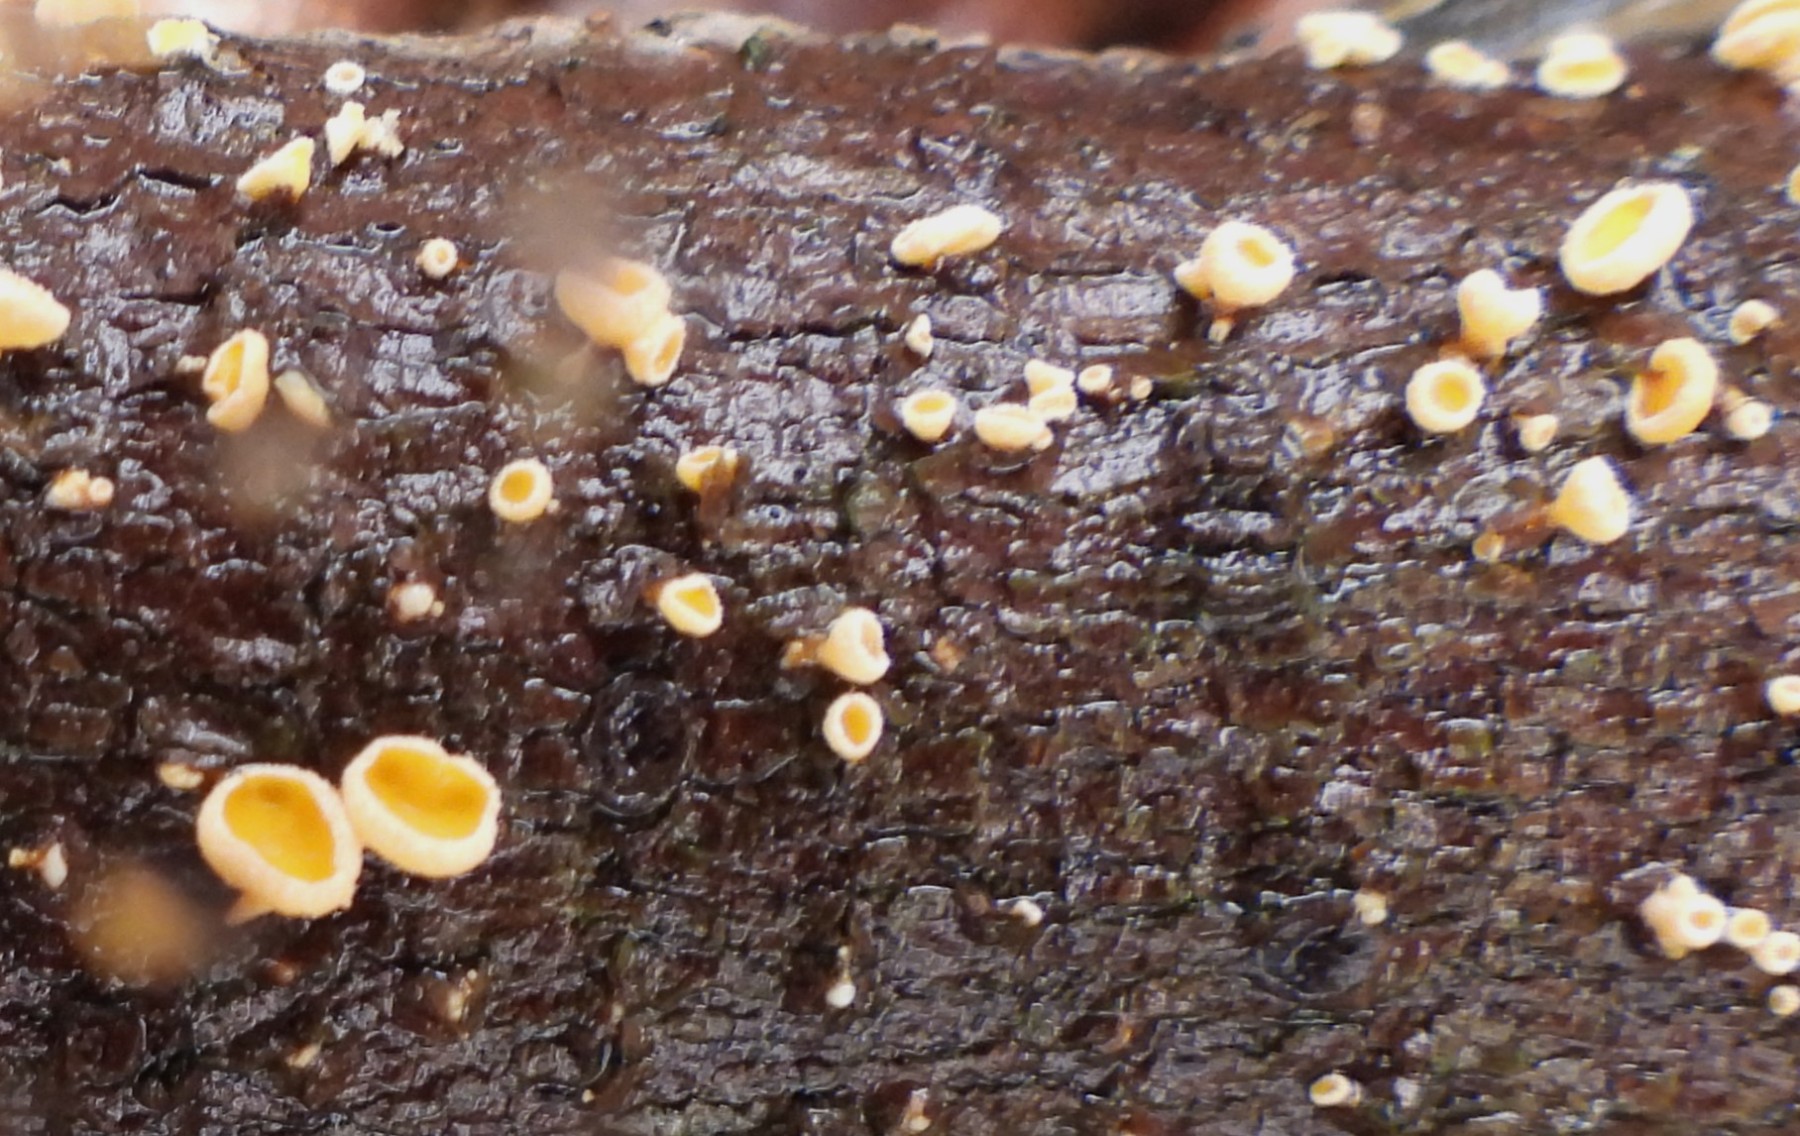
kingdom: Fungi
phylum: Ascomycota
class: Leotiomycetes
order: Helotiales
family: Lachnaceae
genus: Lachnellula
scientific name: Lachnellula
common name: frynseskive
